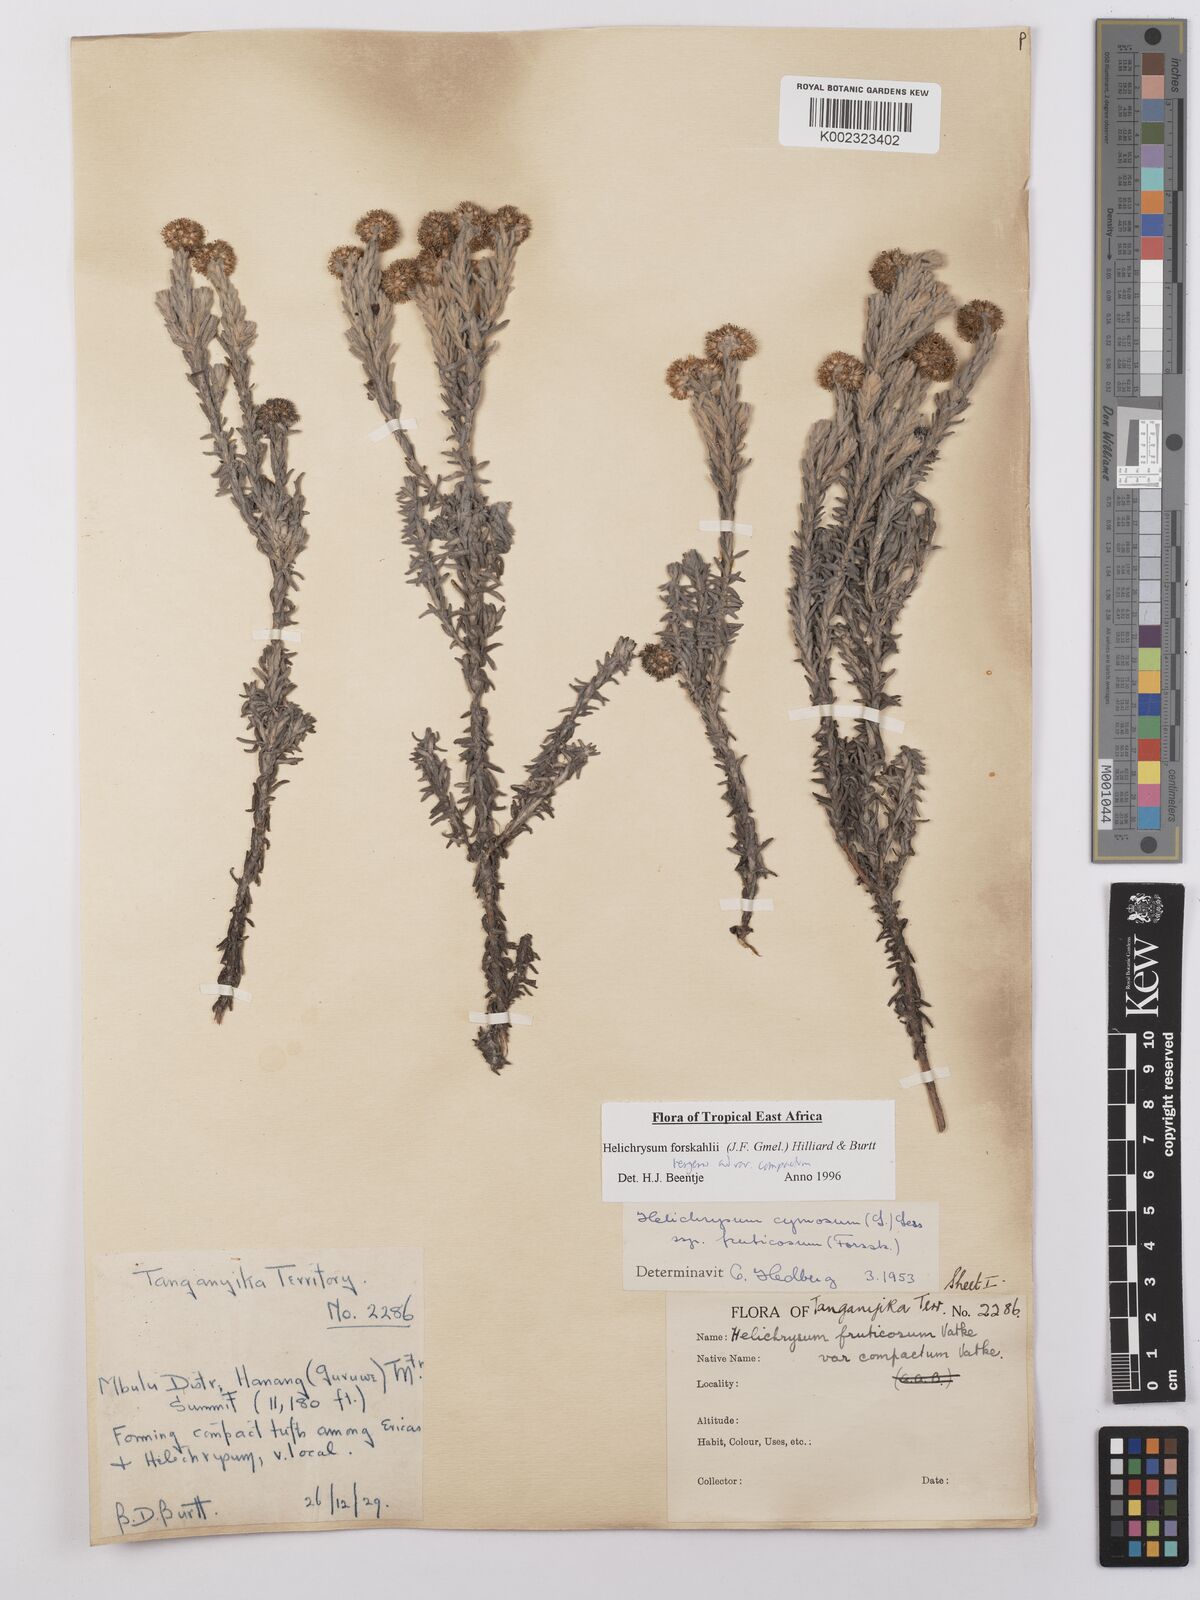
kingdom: Plantae
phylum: Tracheophyta
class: Magnoliopsida
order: Asterales
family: Asteraceae
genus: Helichrysum
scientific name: Helichrysum forskahlii
